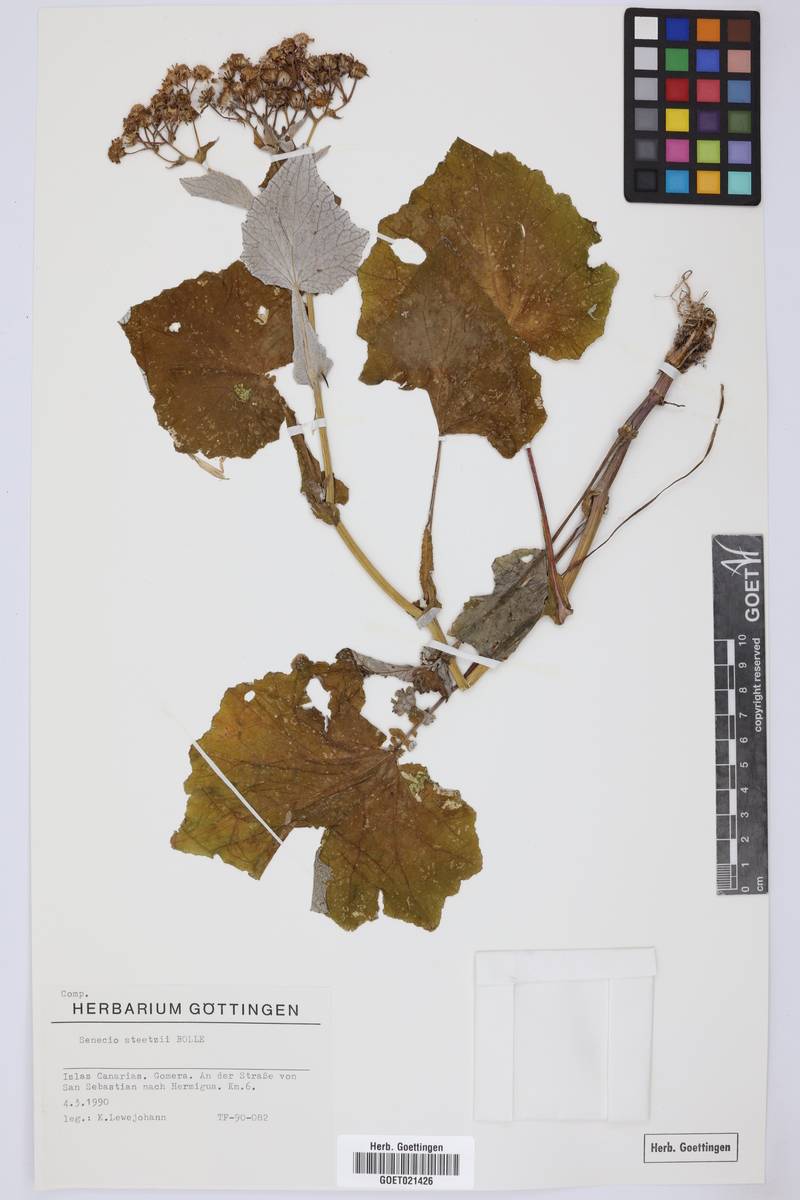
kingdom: Plantae
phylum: Tracheophyta
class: Magnoliopsida
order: Asterales
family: Asteraceae
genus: Pericallis
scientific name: Pericallis steetzii
